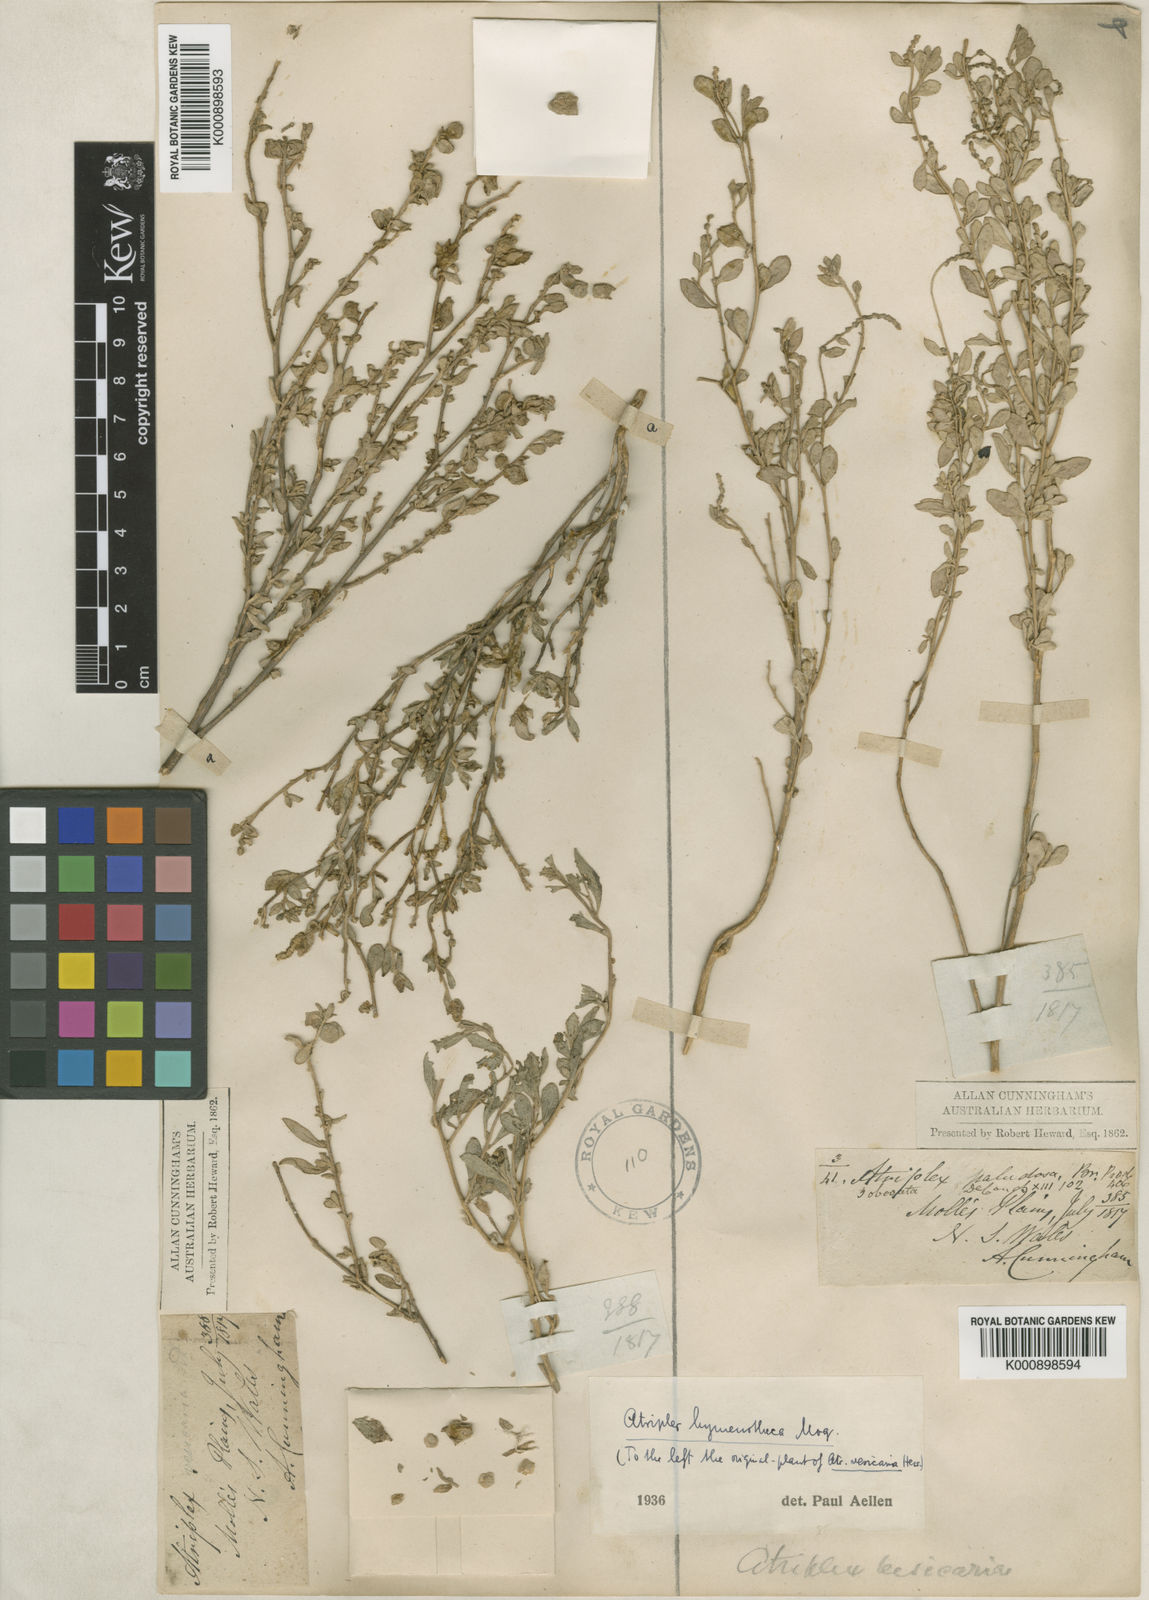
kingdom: Plantae
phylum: Tracheophyta
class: Magnoliopsida
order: Caryophyllales
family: Amaranthaceae
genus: Atriplex
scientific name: Atriplex hymenotheca
